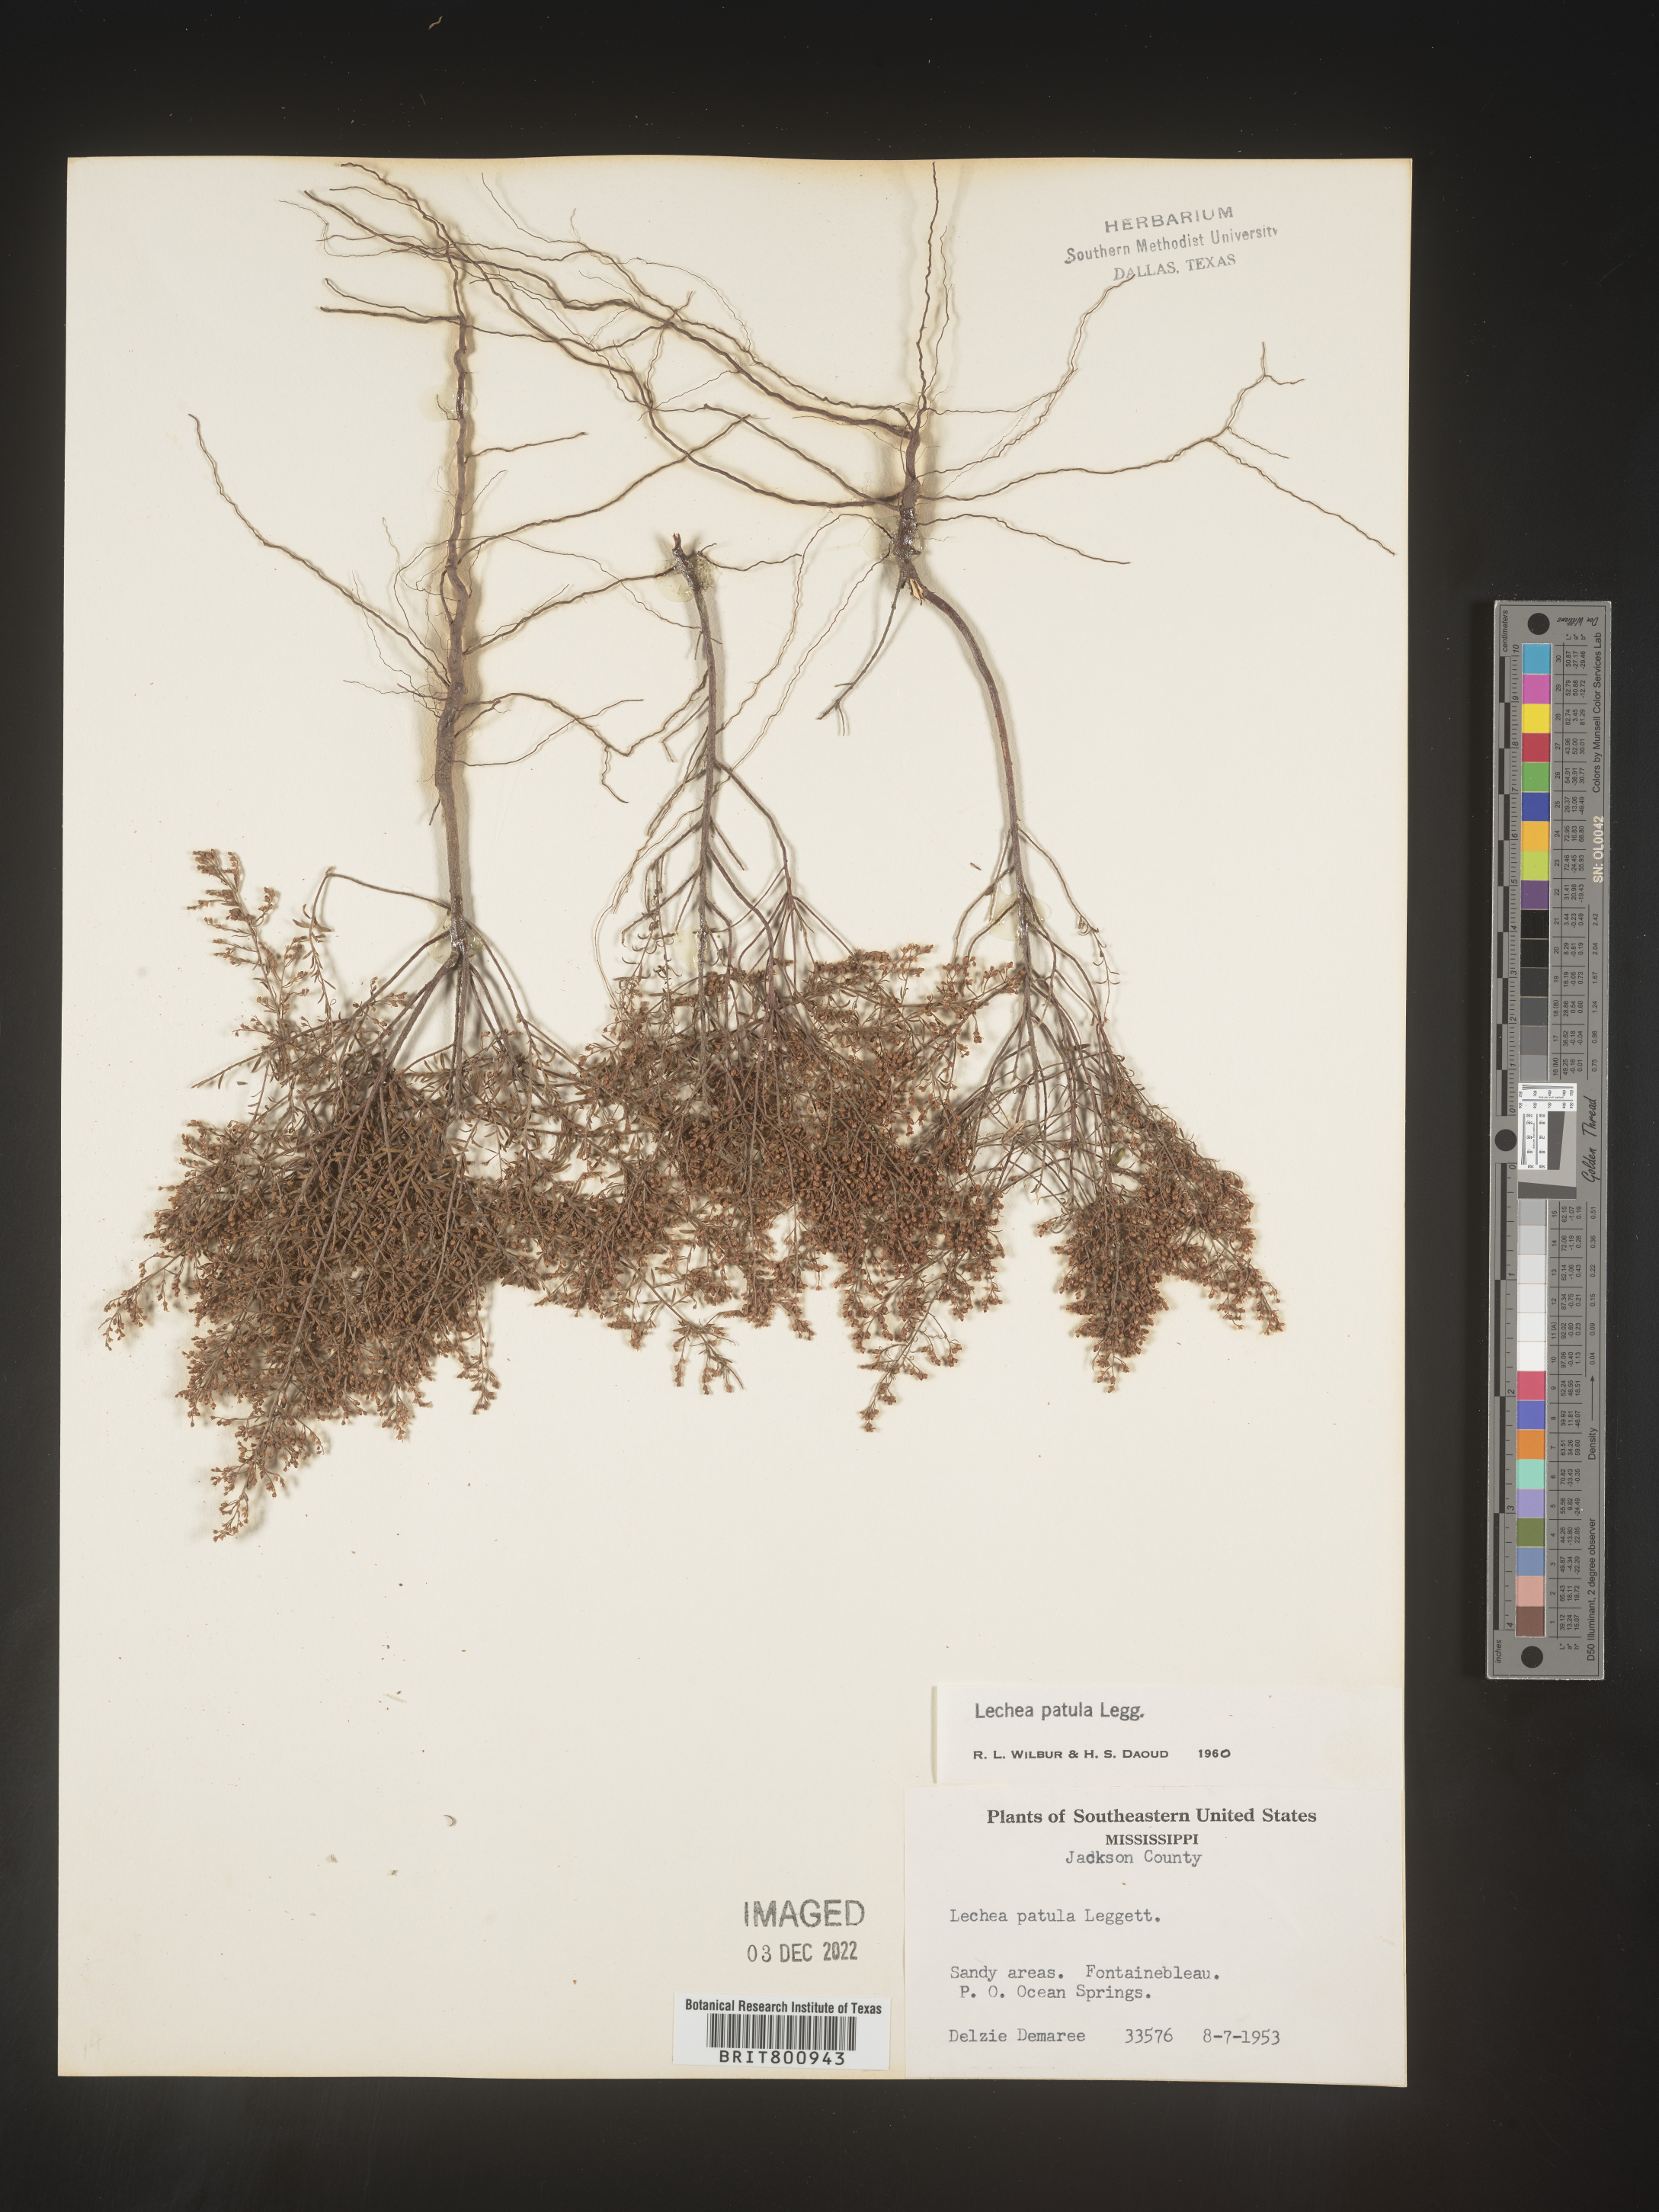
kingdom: Plantae
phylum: Tracheophyta
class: Magnoliopsida
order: Malvales
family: Cistaceae
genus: Lechea
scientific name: Lechea sessiliflora
